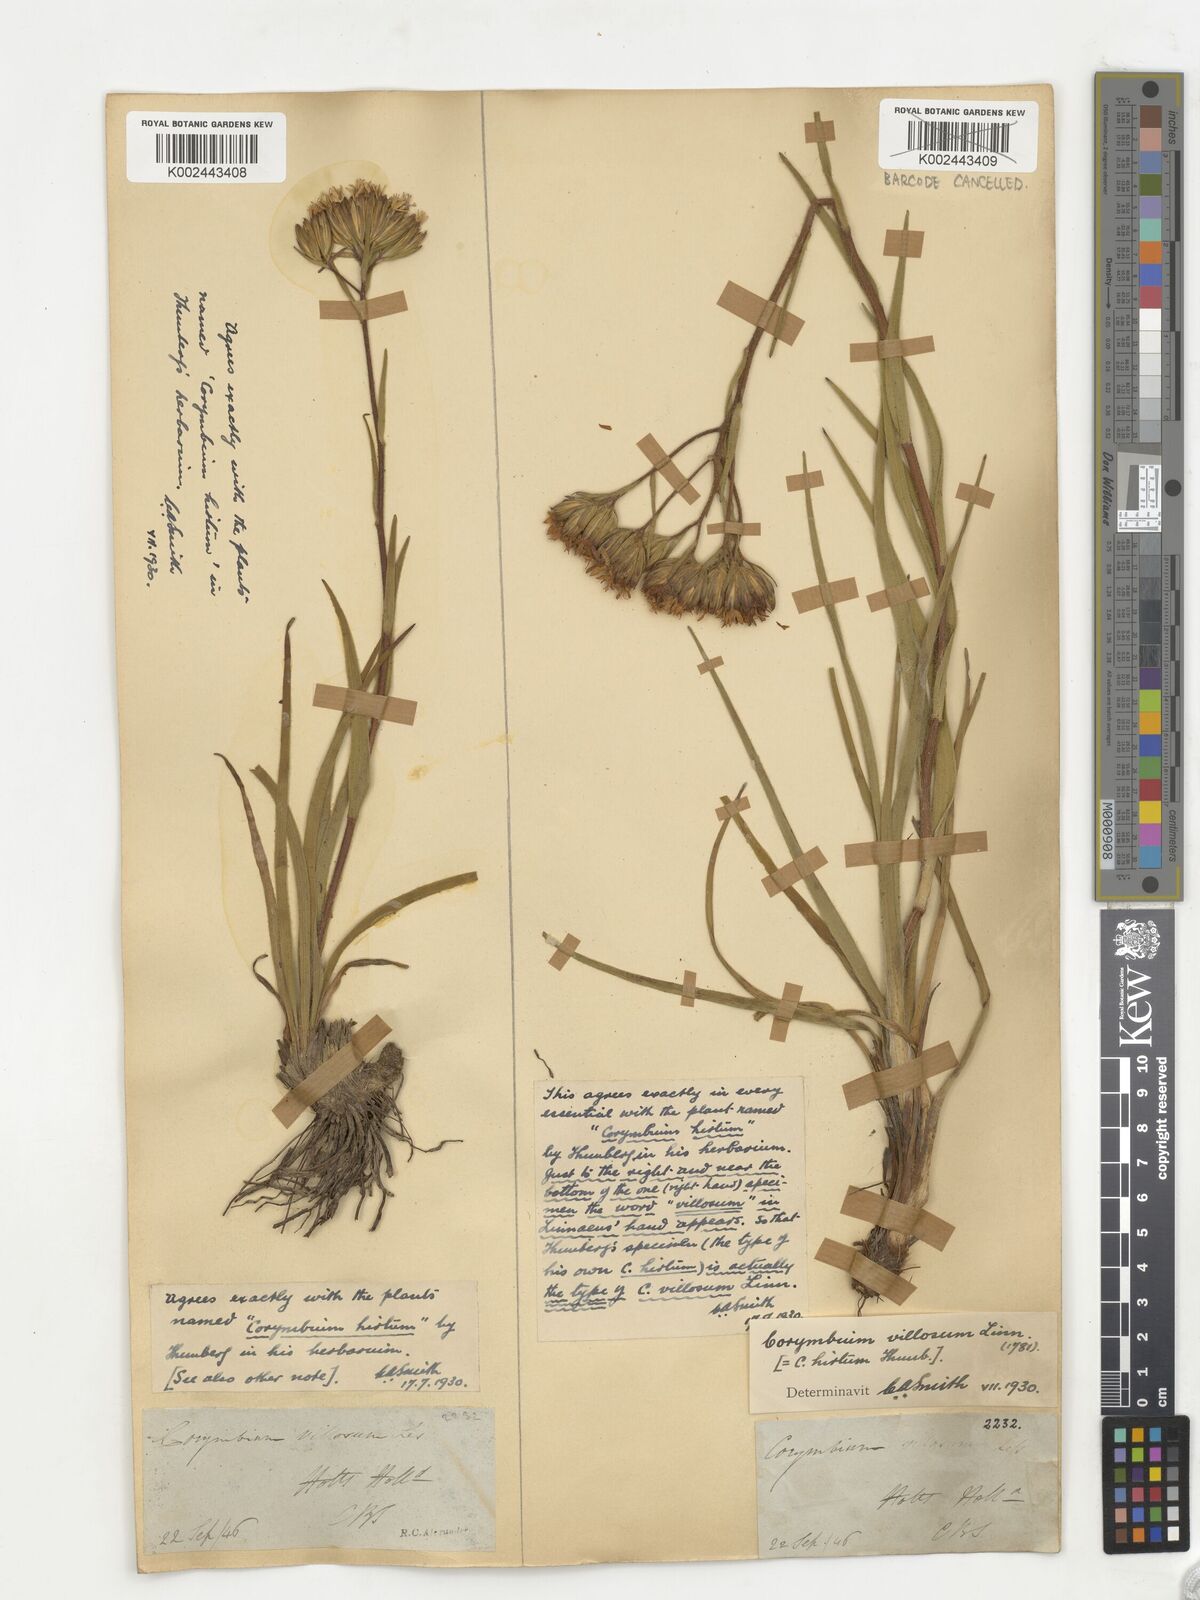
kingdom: Plantae
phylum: Tracheophyta
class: Magnoliopsida
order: Asterales
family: Asteraceae
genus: Corymbium
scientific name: Corymbium villosum
